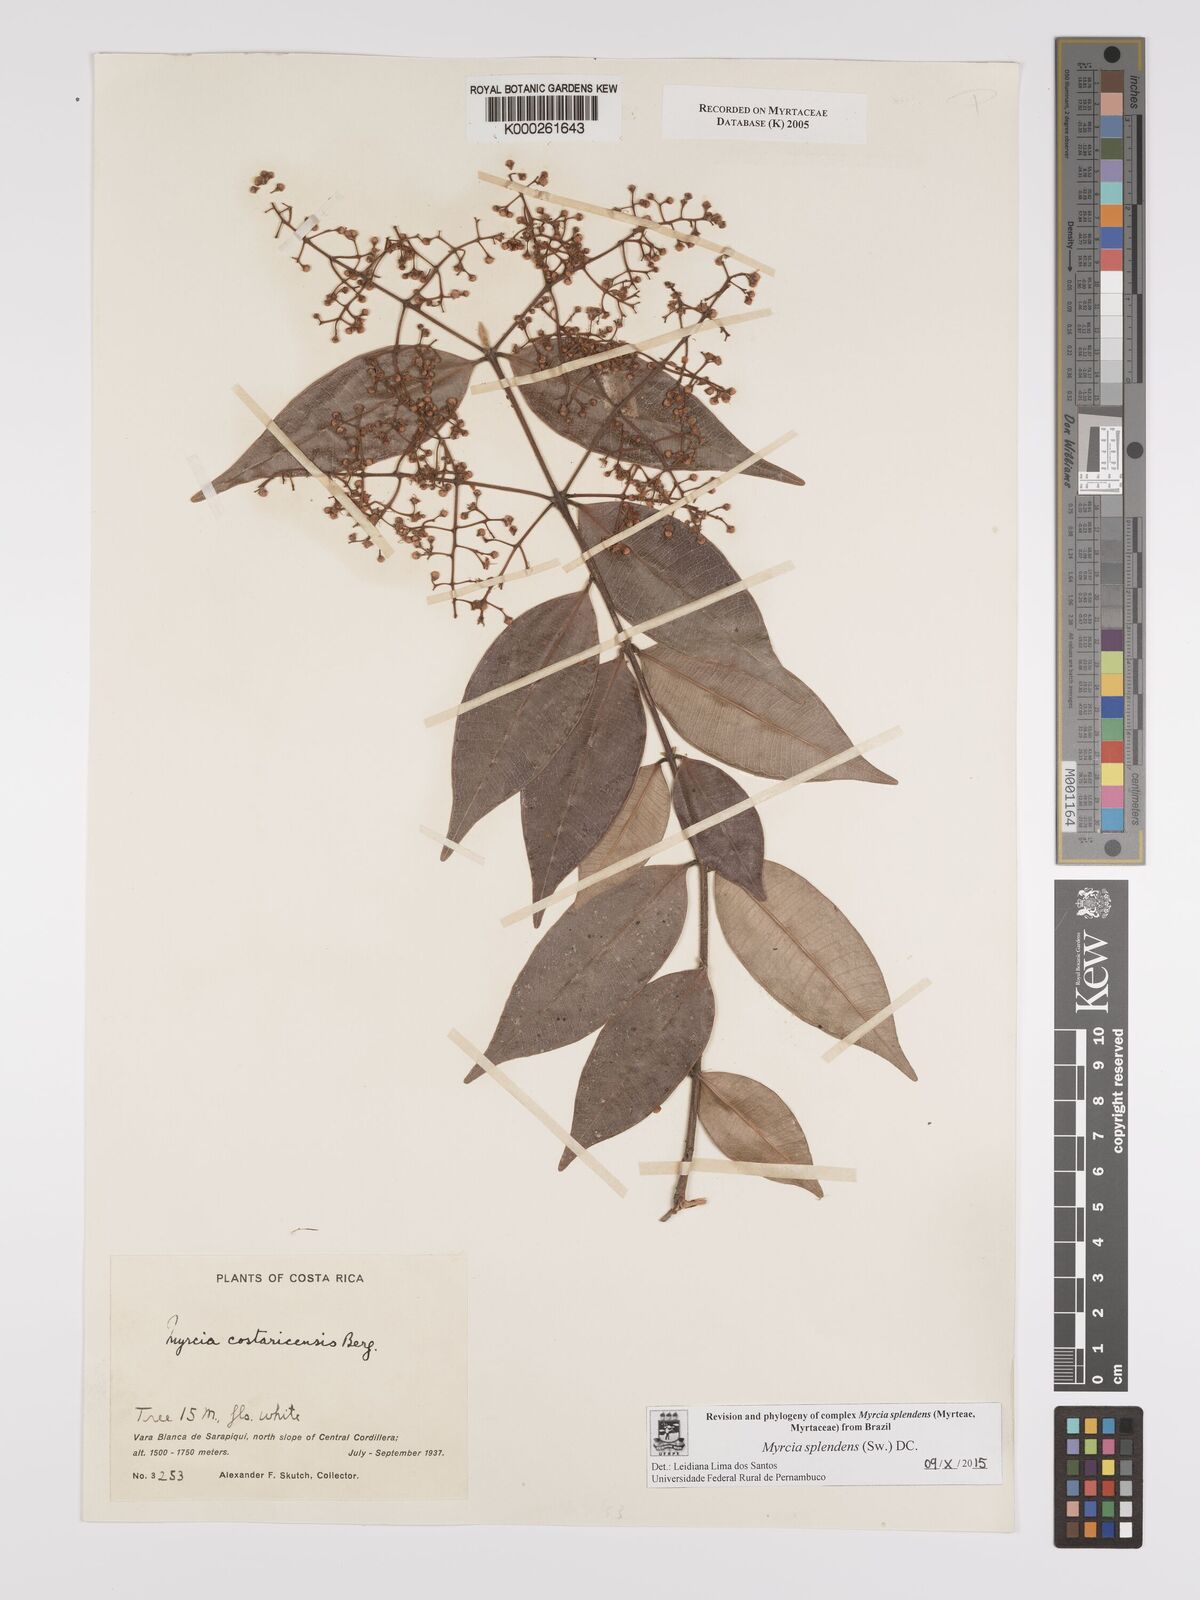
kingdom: Plantae
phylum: Tracheophyta
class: Magnoliopsida
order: Myrtales
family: Myrtaceae
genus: Myrcia
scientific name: Myrcia splendens
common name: Surinam cherry
